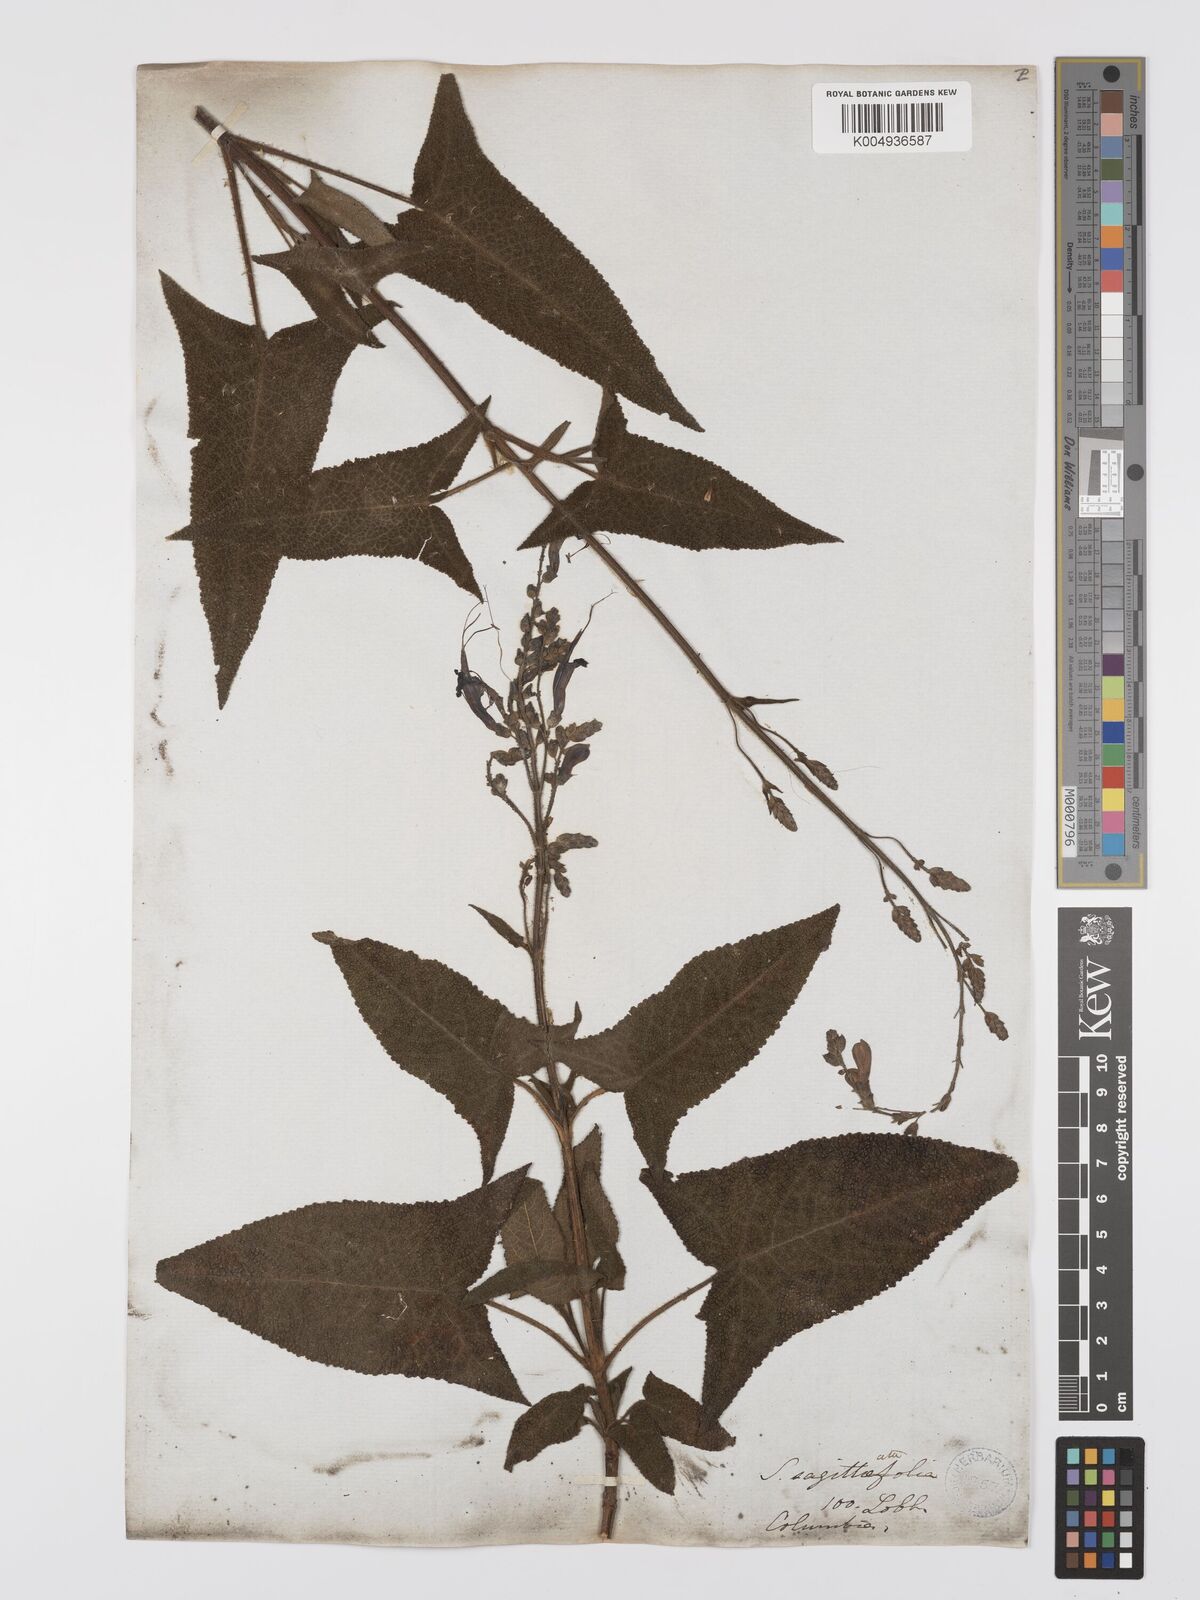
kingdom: Plantae
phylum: Tracheophyta
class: Magnoliopsida
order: Lamiales
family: Lamiaceae
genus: Salvia
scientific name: Salvia sagittata
